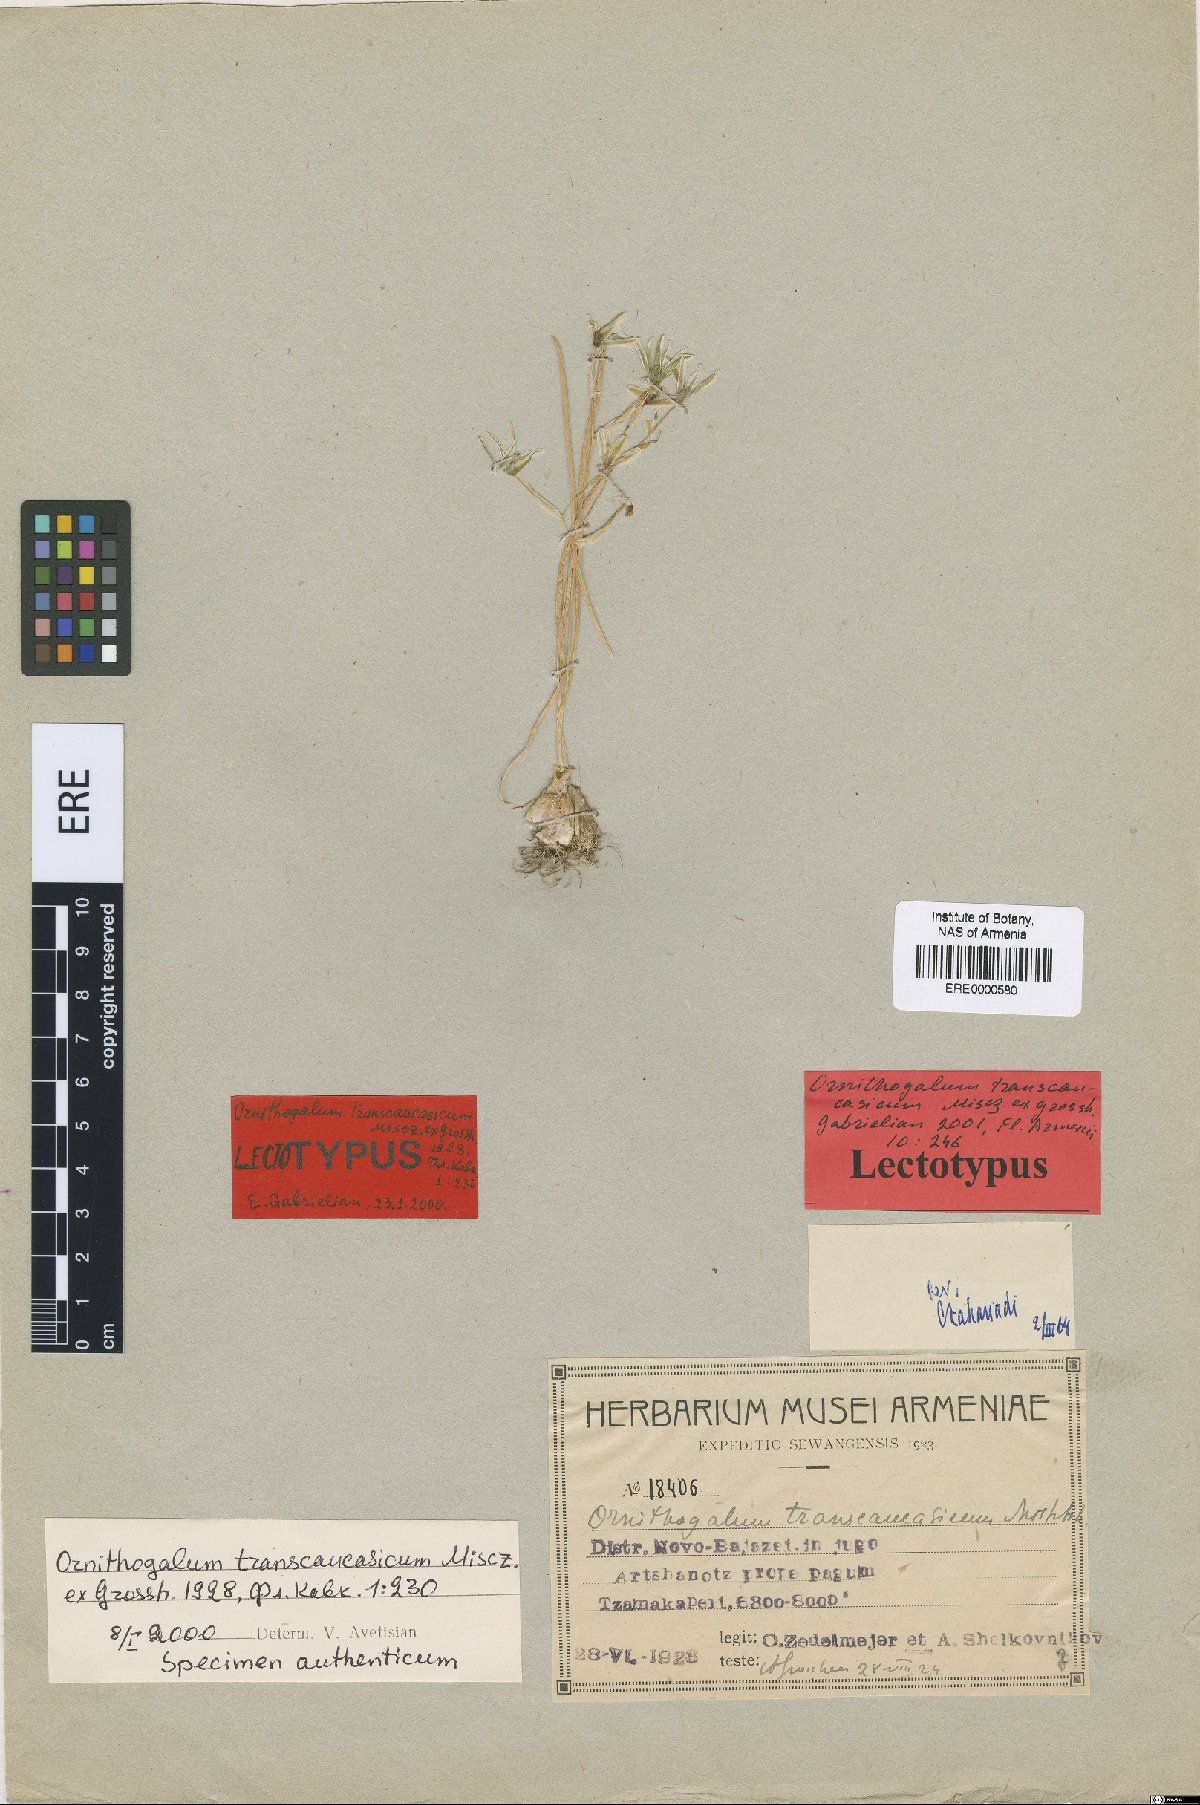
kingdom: Plantae
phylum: Tracheophyta
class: Liliopsida
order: Asparagales
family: Asparagaceae
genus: Ornithogalum
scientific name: Ornithogalum transcaucasicum
